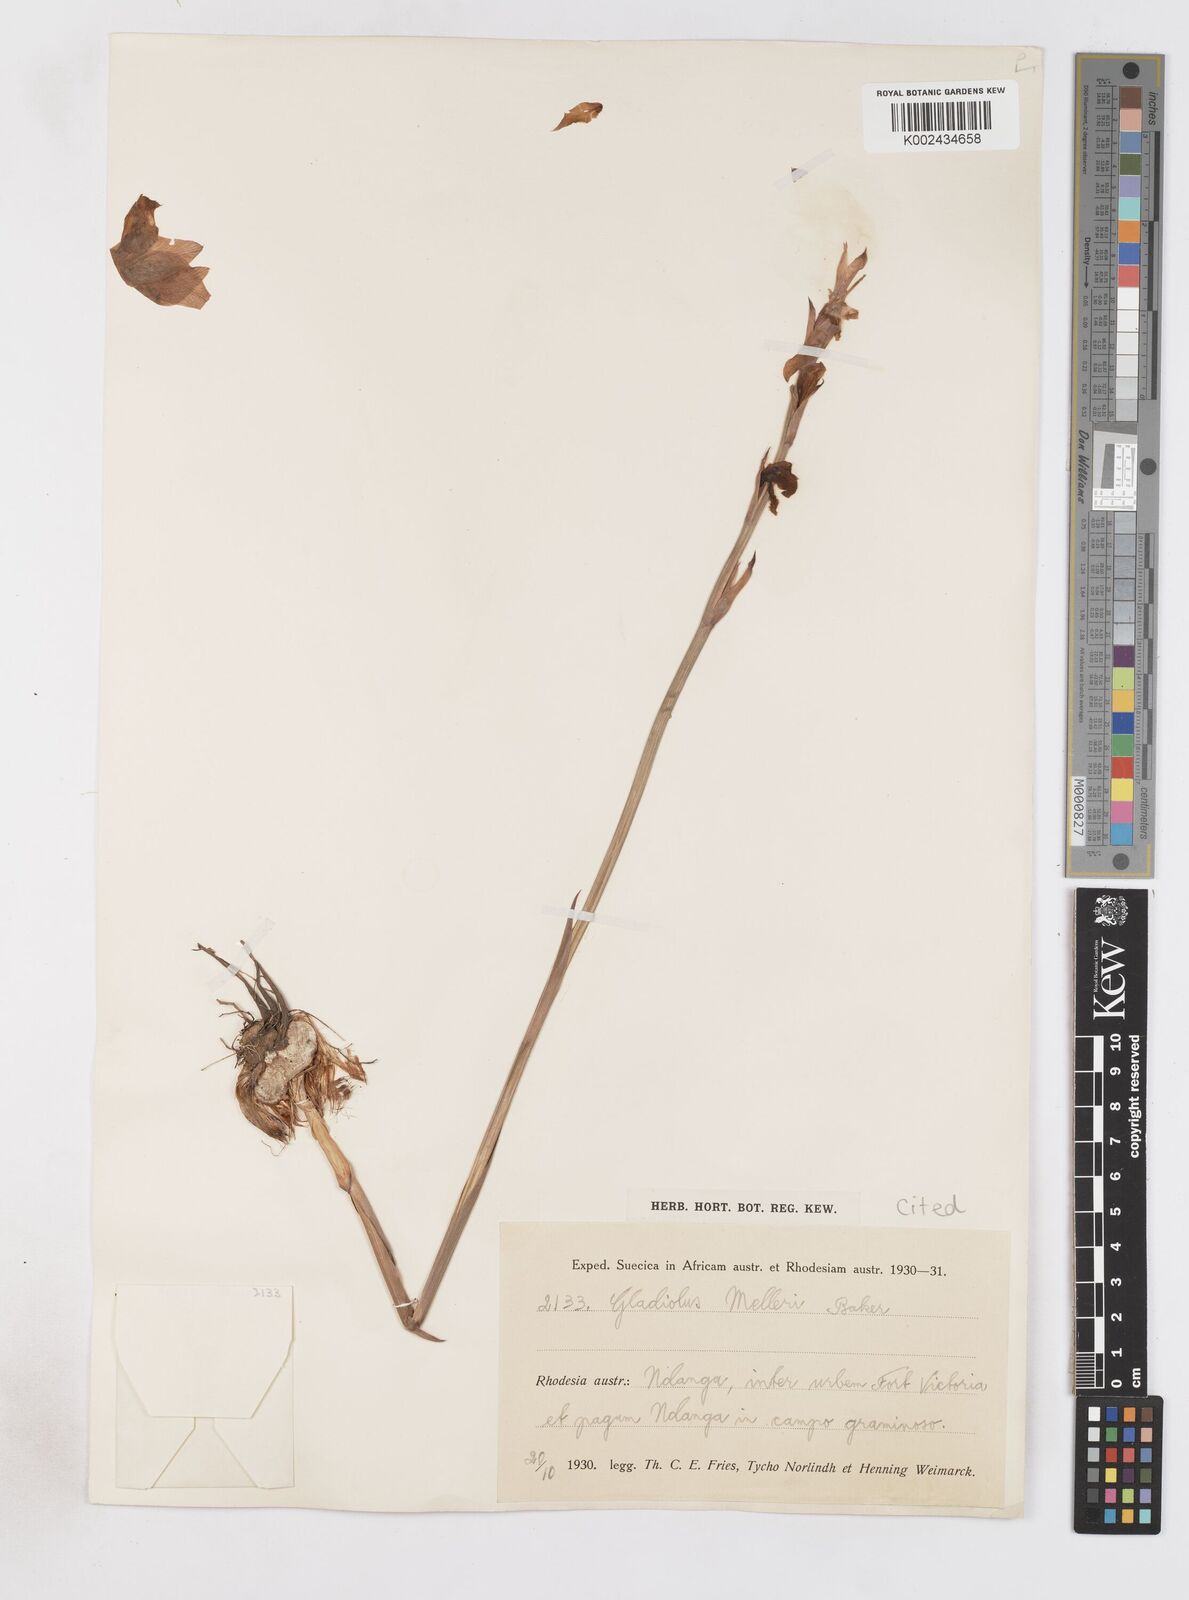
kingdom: Plantae
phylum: Tracheophyta
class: Liliopsida
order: Asparagales
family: Iridaceae
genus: Gladiolus
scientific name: Gladiolus melleri
